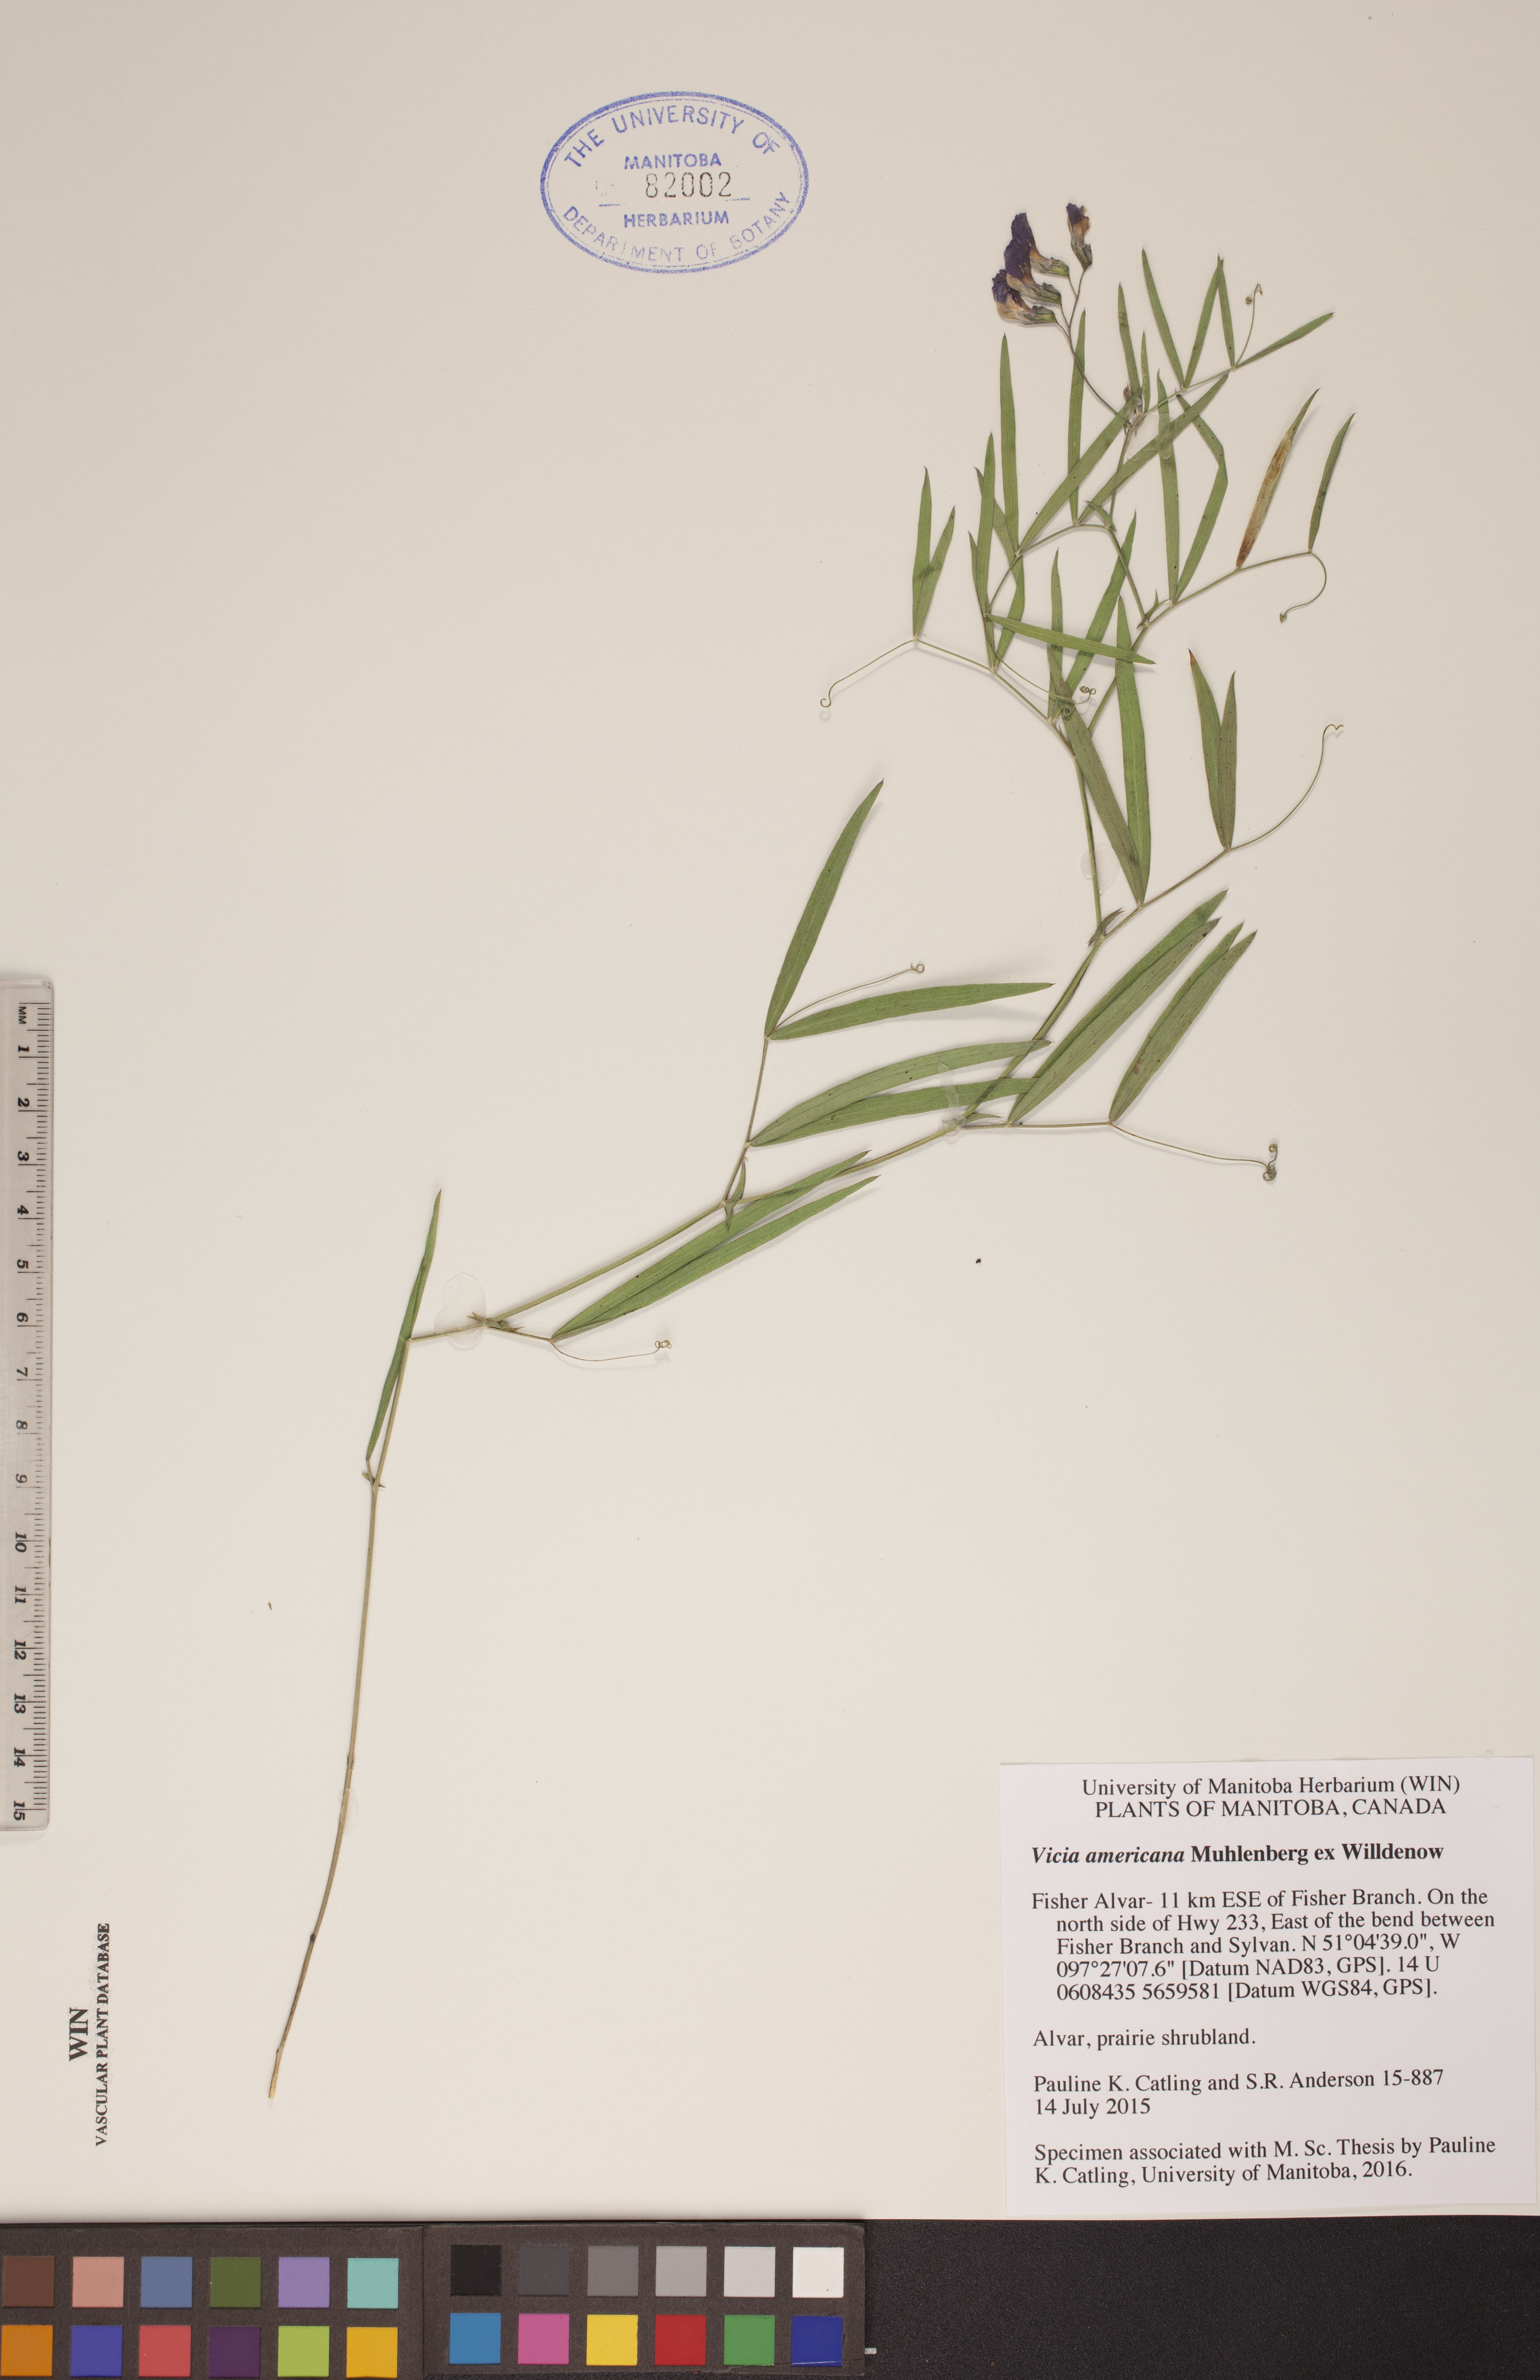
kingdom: Plantae
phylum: Tracheophyta
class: Magnoliopsida
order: Fabales
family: Fabaceae
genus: Vicia
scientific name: Vicia americana
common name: American vetch
